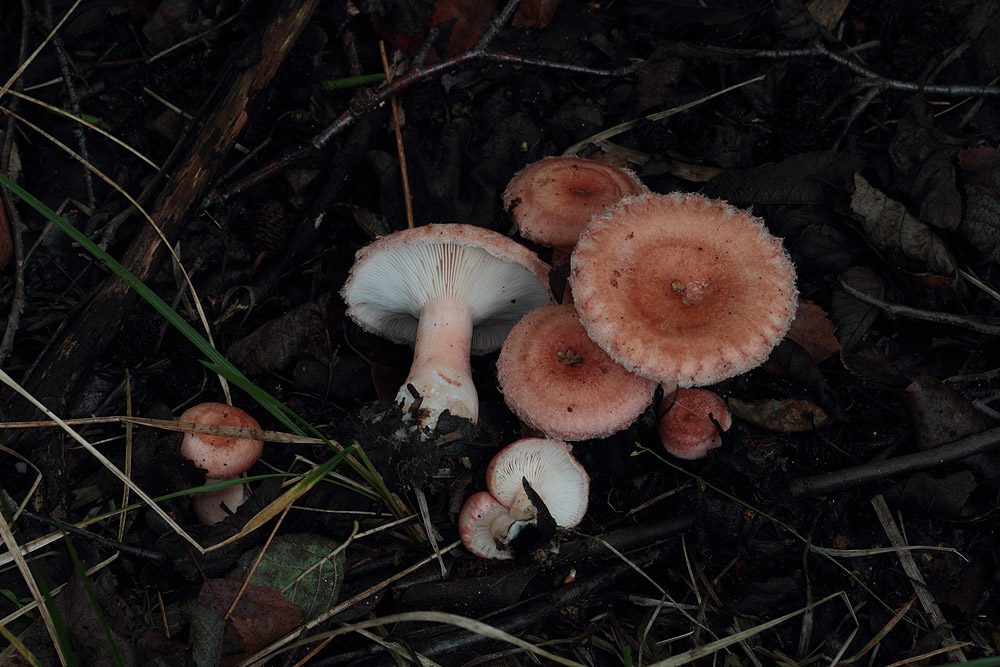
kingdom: Fungi
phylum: Basidiomycota
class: Agaricomycetes
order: Russulales
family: Russulaceae
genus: Lactarius
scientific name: Lactarius torminosus
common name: skægget mælkehat
